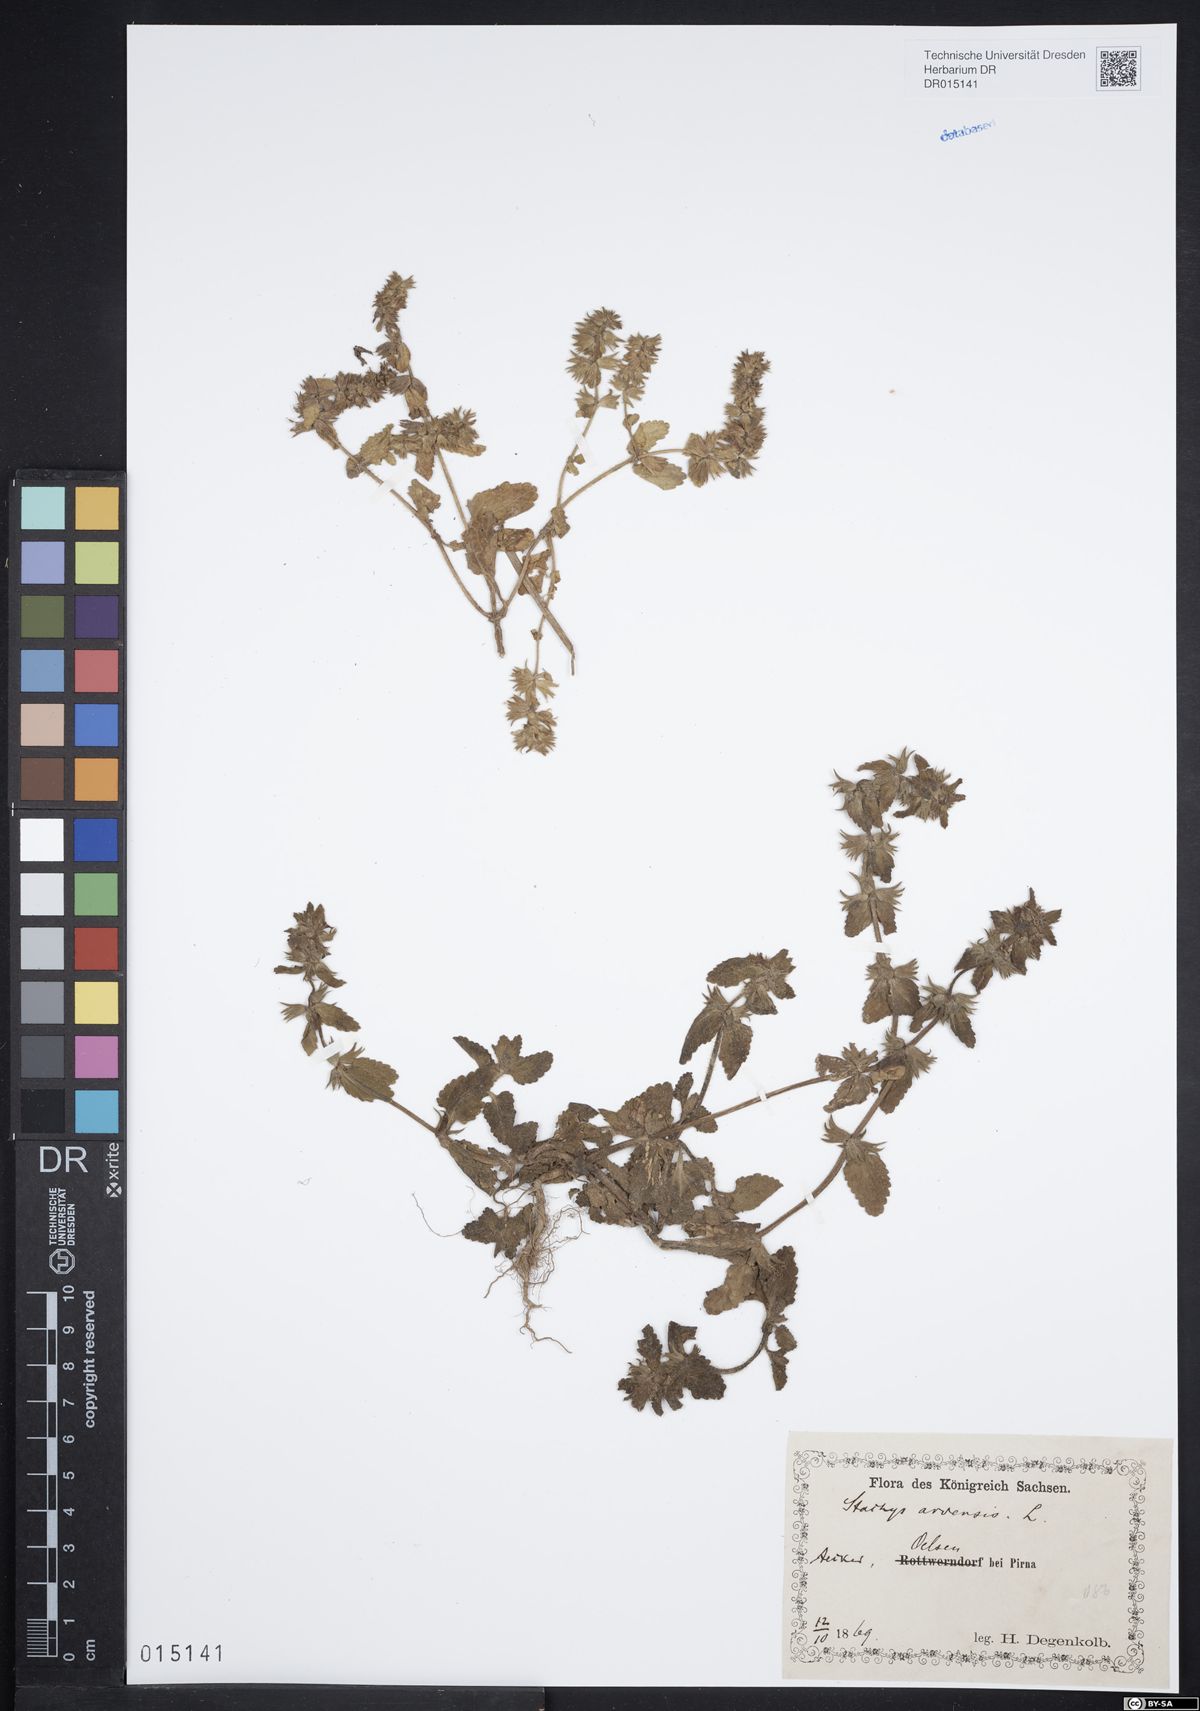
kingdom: Plantae
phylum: Tracheophyta
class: Magnoliopsida
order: Lamiales
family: Lamiaceae
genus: Stachys
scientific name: Stachys arvensis
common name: Field woundwort
